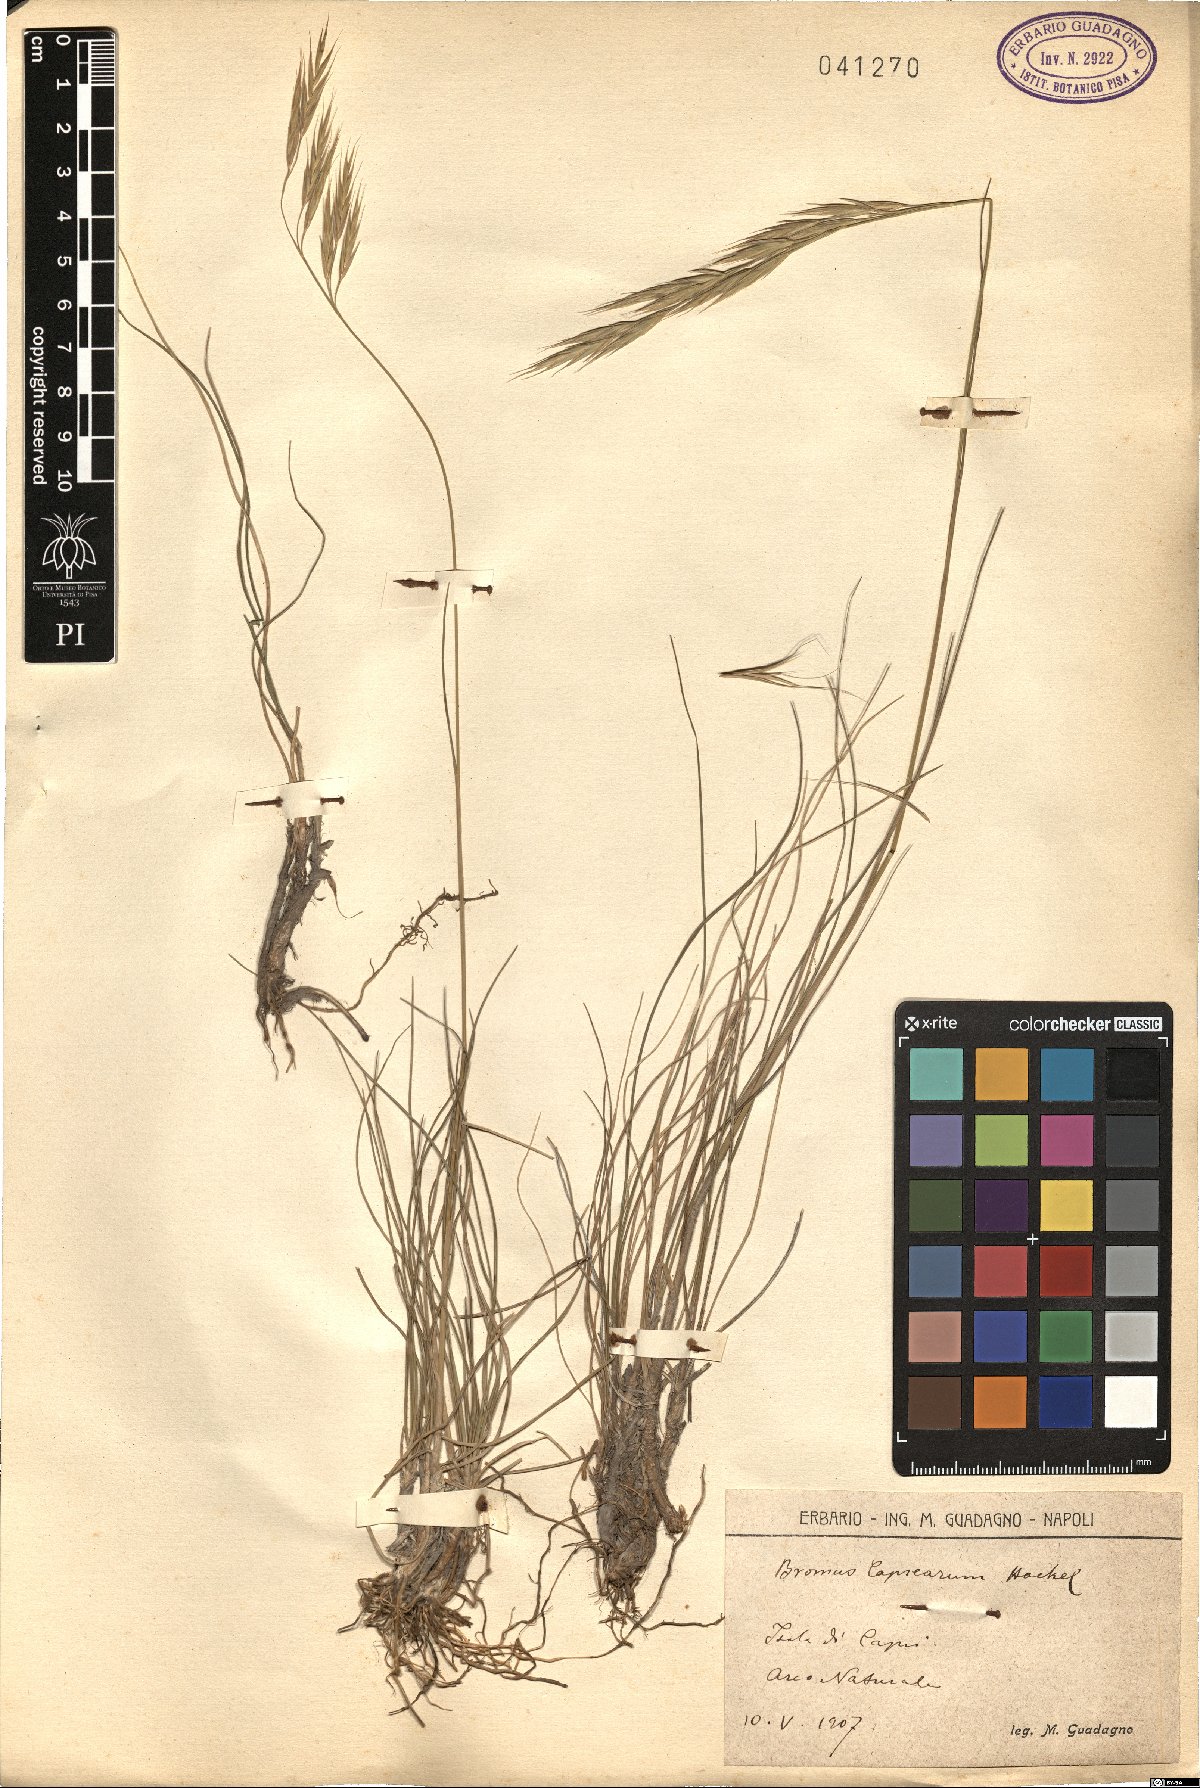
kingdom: Plantae
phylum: Tracheophyta
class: Liliopsida
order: Poales
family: Poaceae
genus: Bromus
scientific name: Bromus erectus
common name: Erect brome
